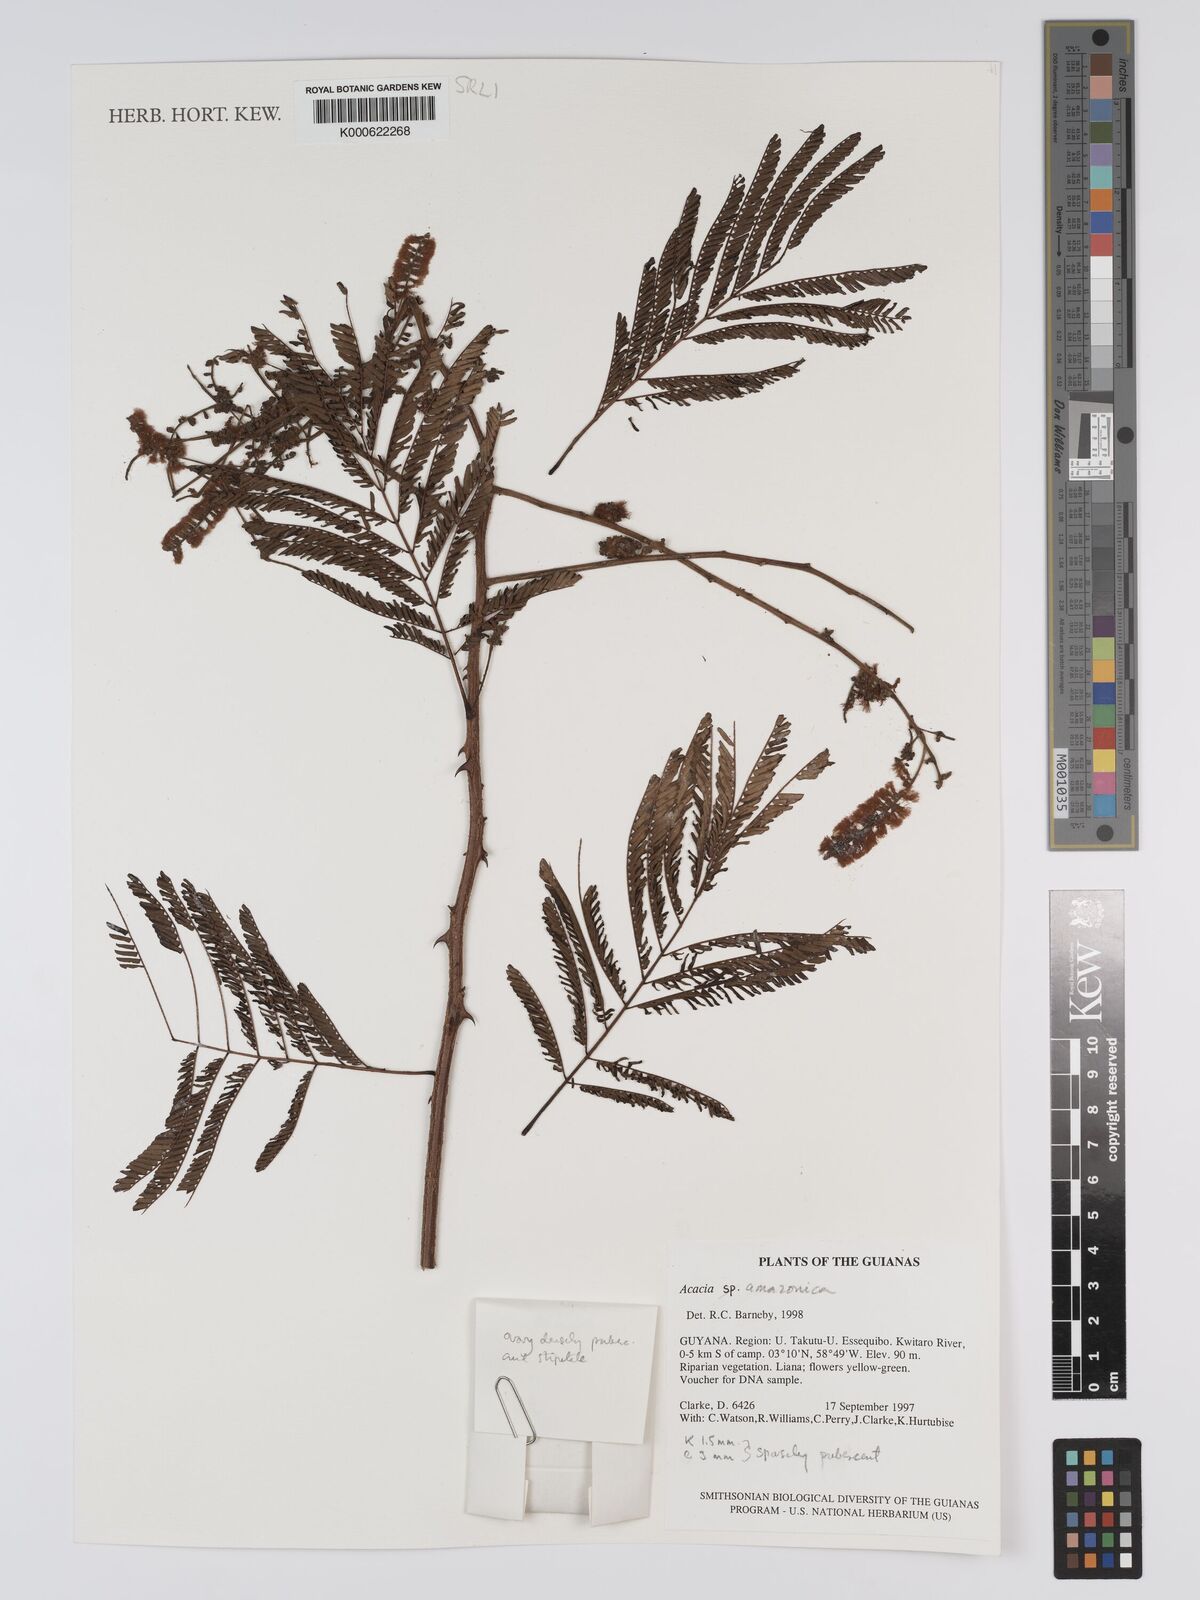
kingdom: Plantae
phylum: Tracheophyta
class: Magnoliopsida
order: Fabales
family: Fabaceae
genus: Senegalia
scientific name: Senegalia amazonica
